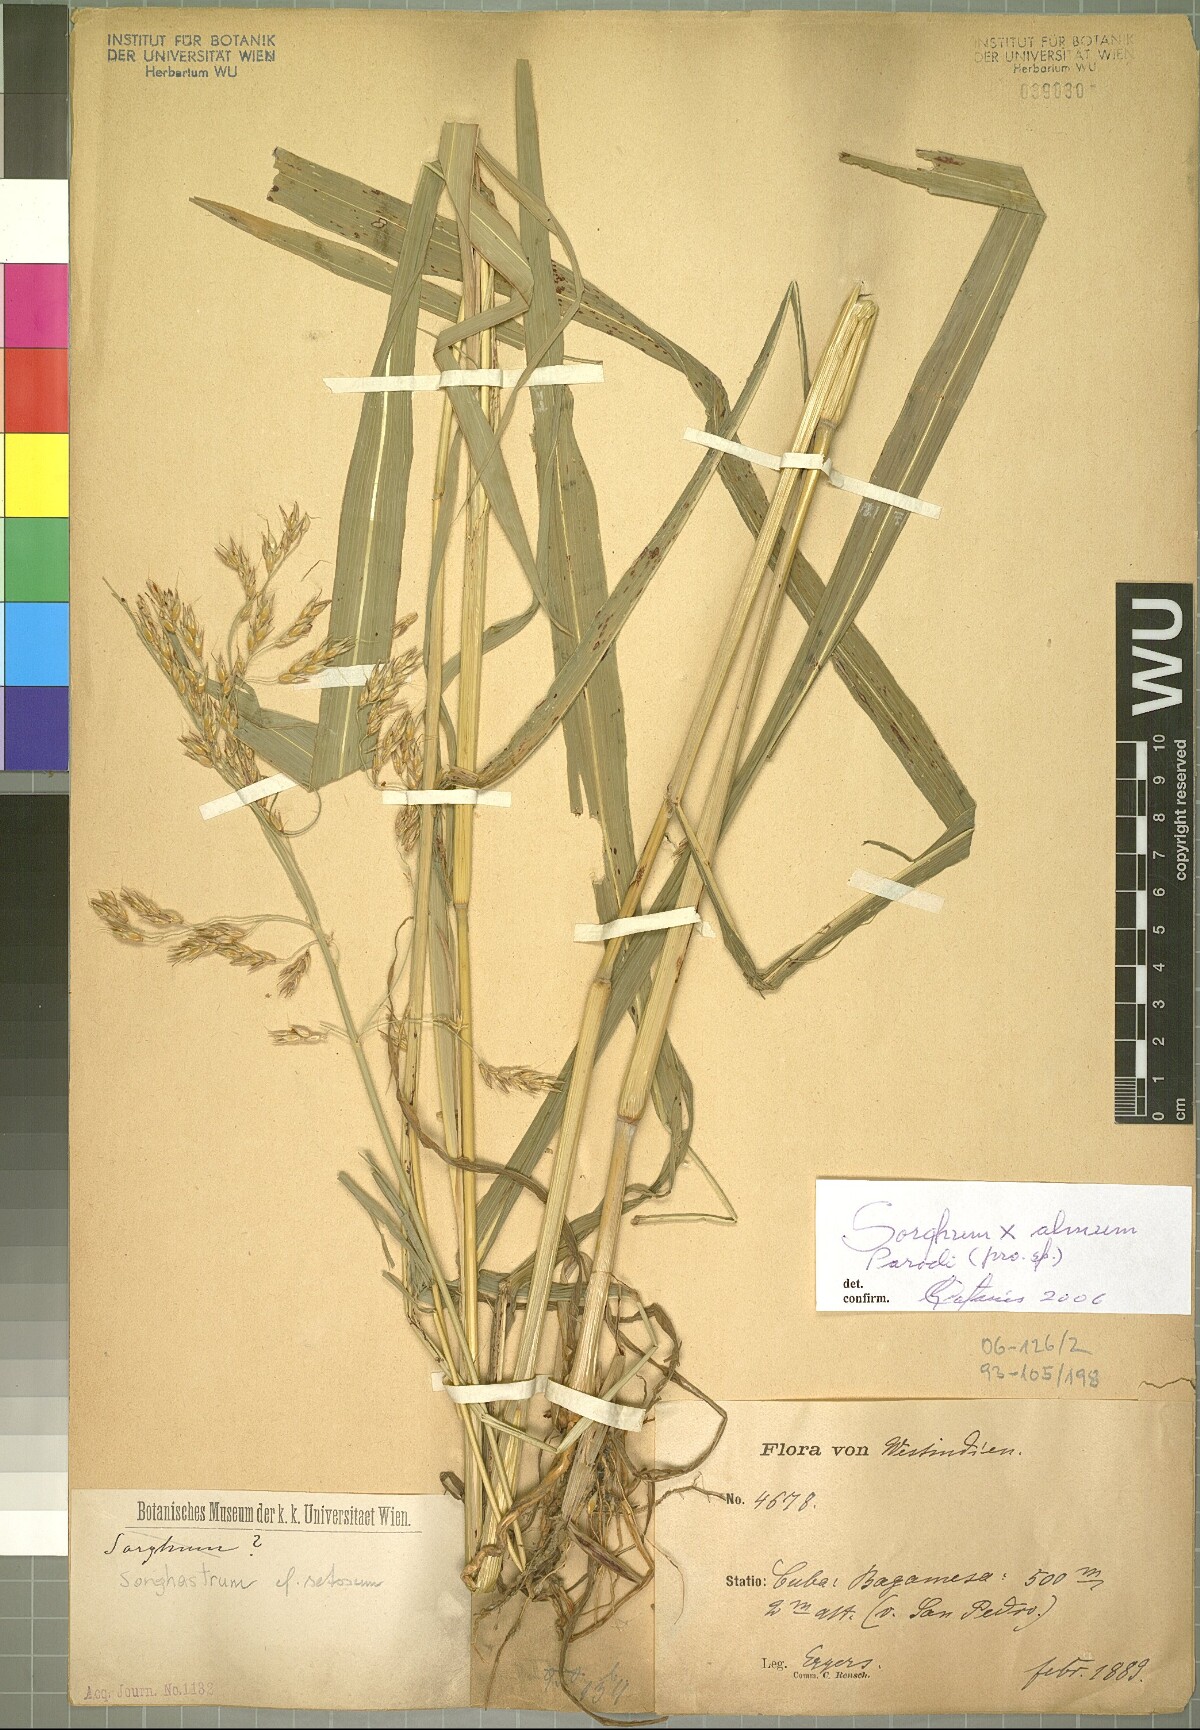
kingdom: Plantae
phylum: Tracheophyta
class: Liliopsida
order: Poales
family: Poaceae
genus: Sorghum
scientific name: Sorghum almum
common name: Columbus grass
